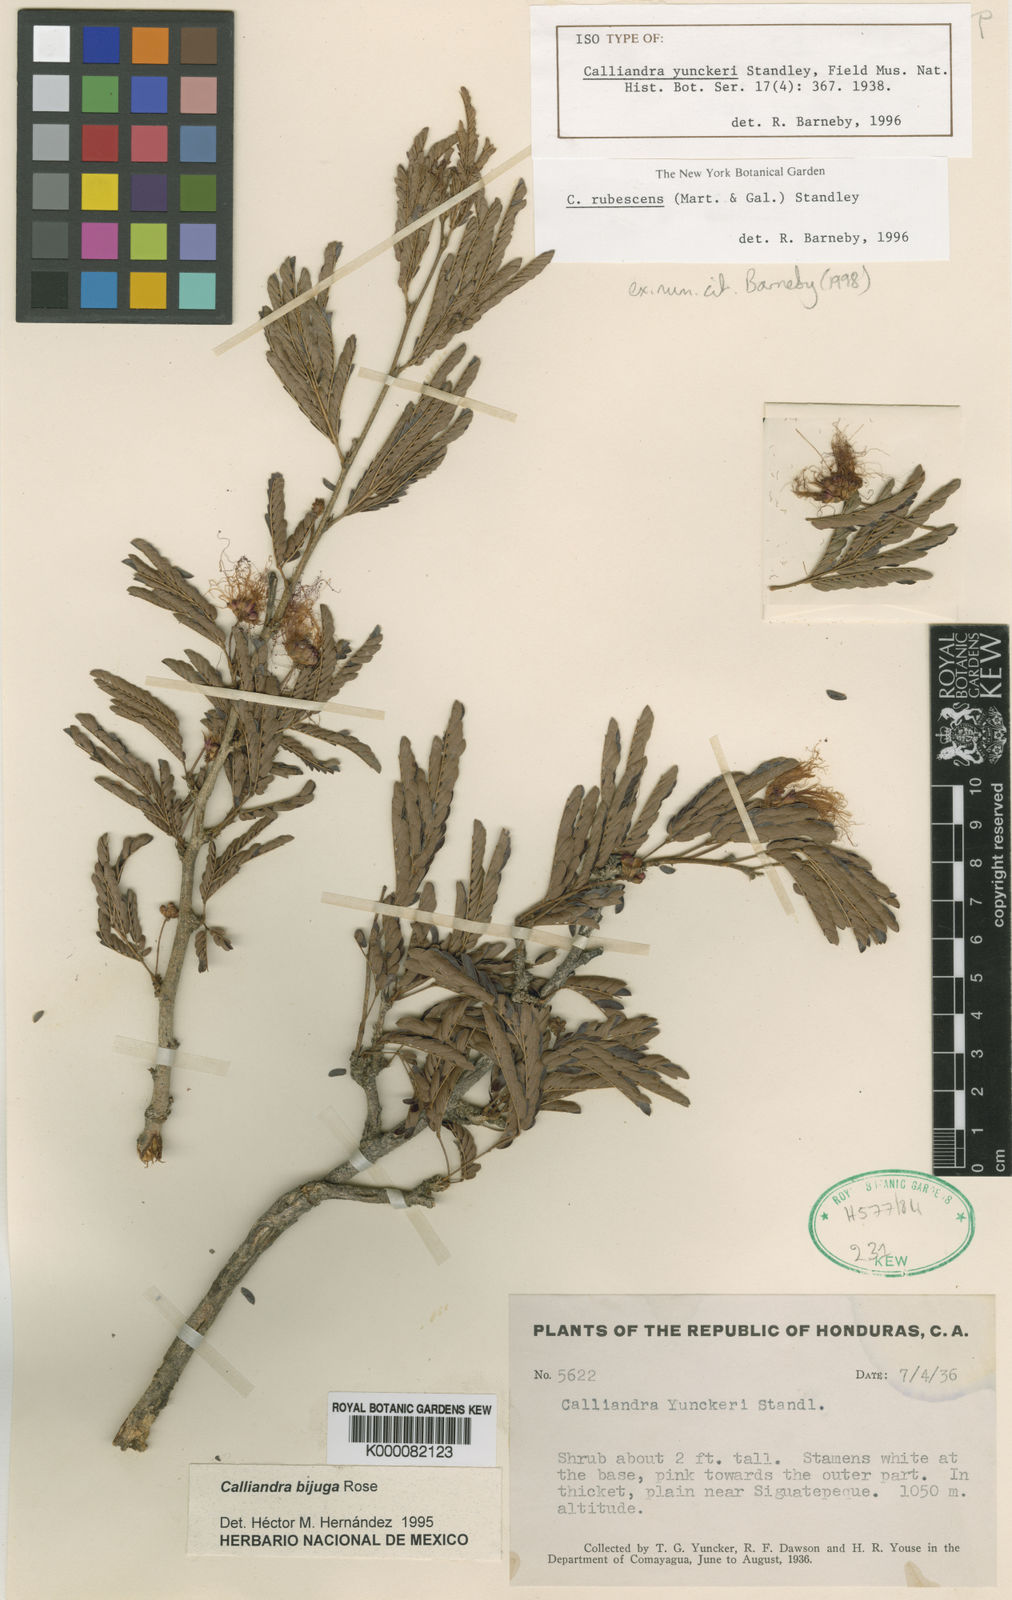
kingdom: Plantae
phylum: Tracheophyta
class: Magnoliopsida
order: Fabales
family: Fabaceae
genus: Calliandra
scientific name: Calliandra rubescens
